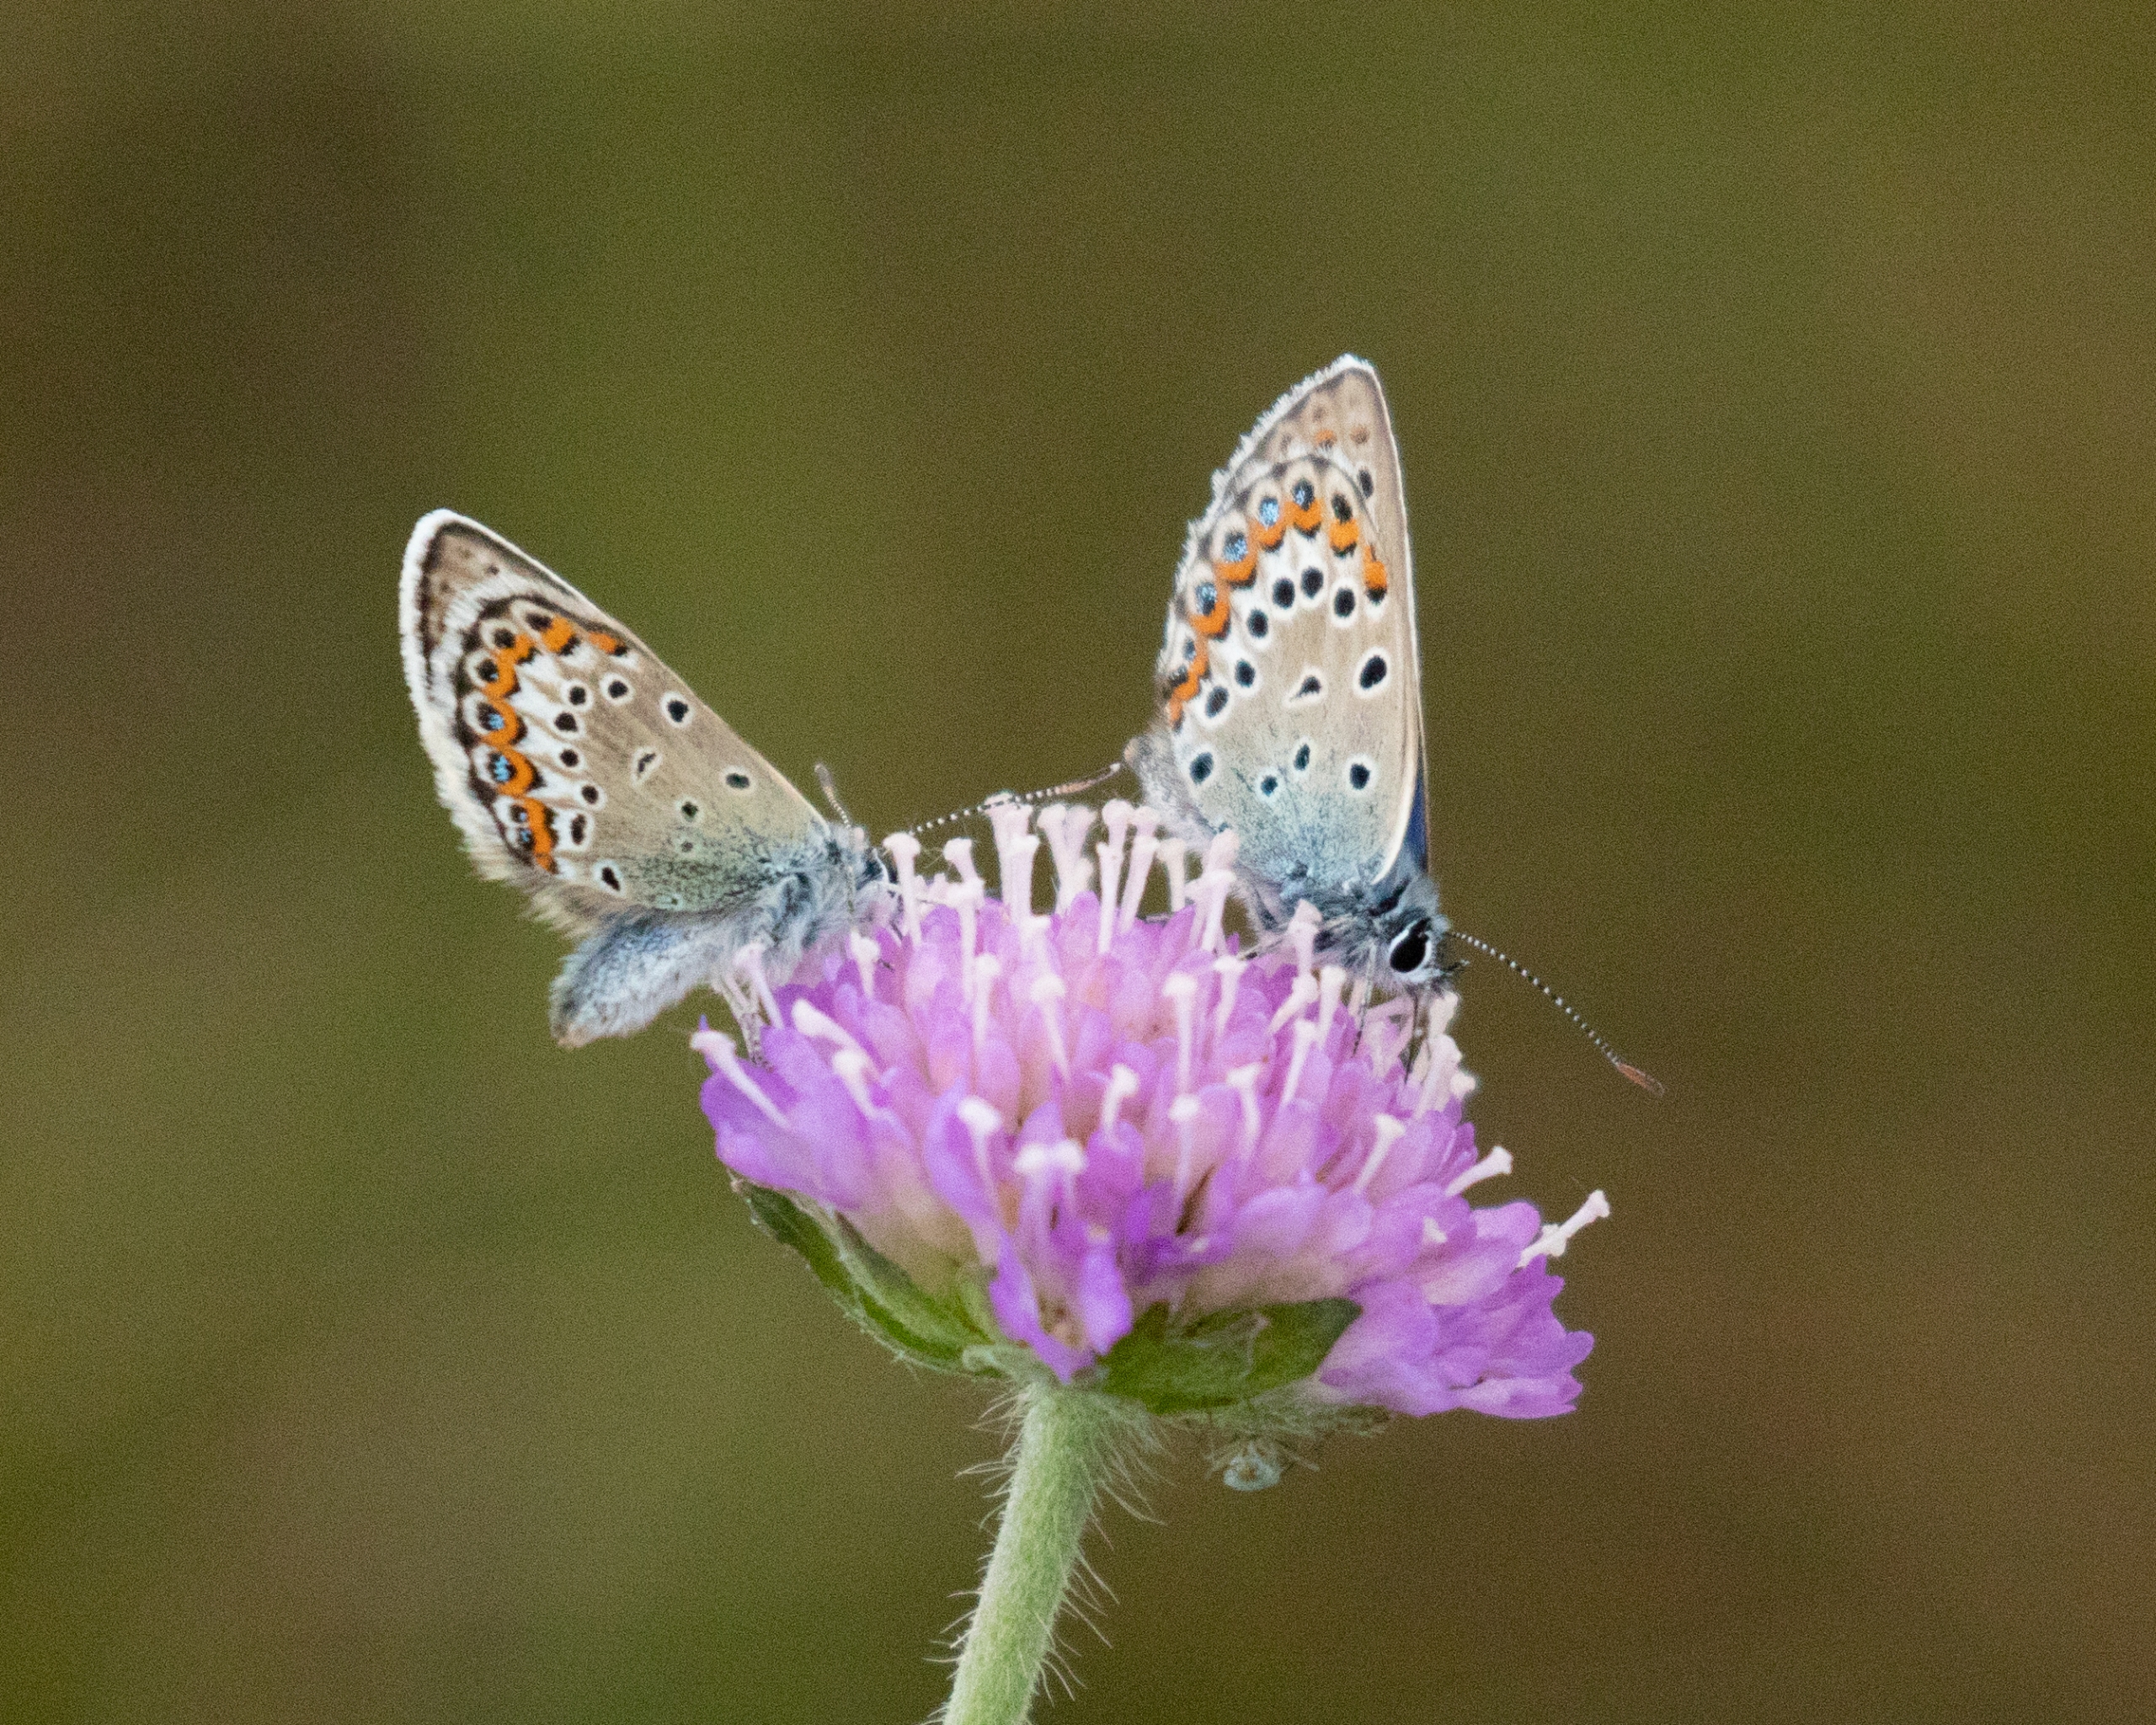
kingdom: Animalia
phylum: Arthropoda
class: Insecta
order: Lepidoptera
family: Lycaenidae
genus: Lycaeides
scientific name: Lycaeides idas
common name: Foranderlig blåfugl
